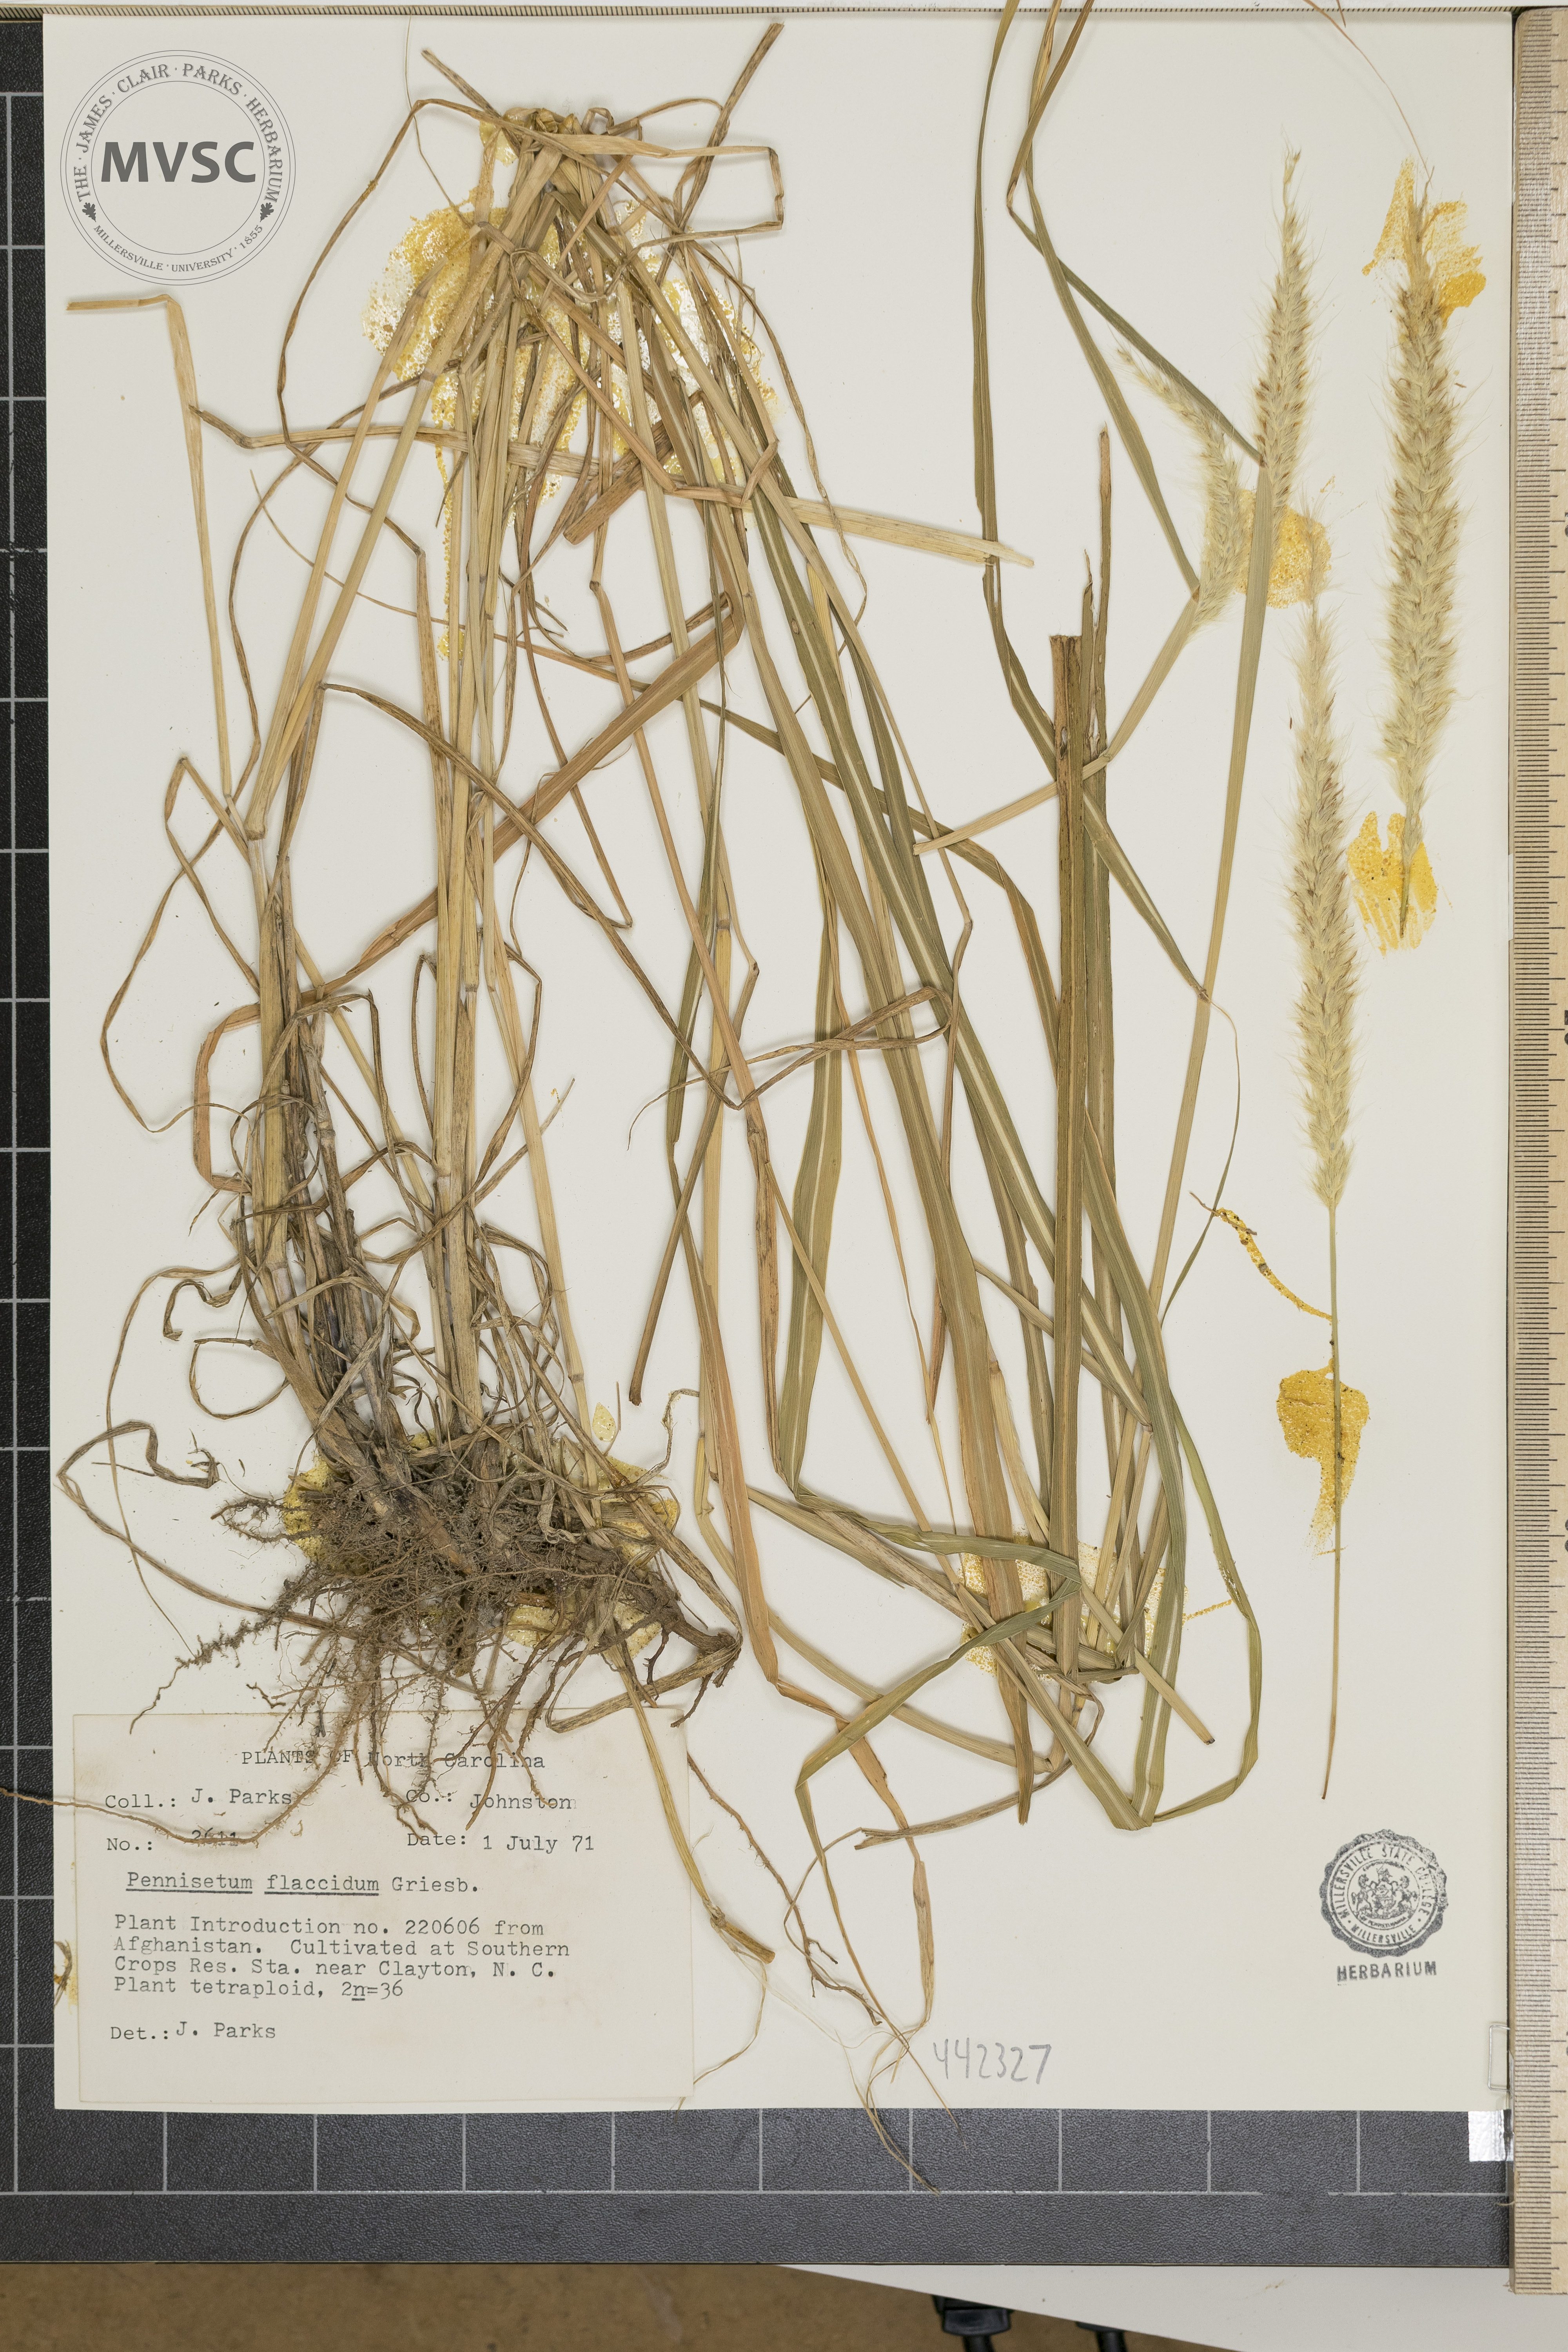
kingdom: Plantae
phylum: Tracheophyta
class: Liliopsida
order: Poales
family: Poaceae
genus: Cenchrus
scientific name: Cenchrus flaccidus
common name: Flaccid grass
